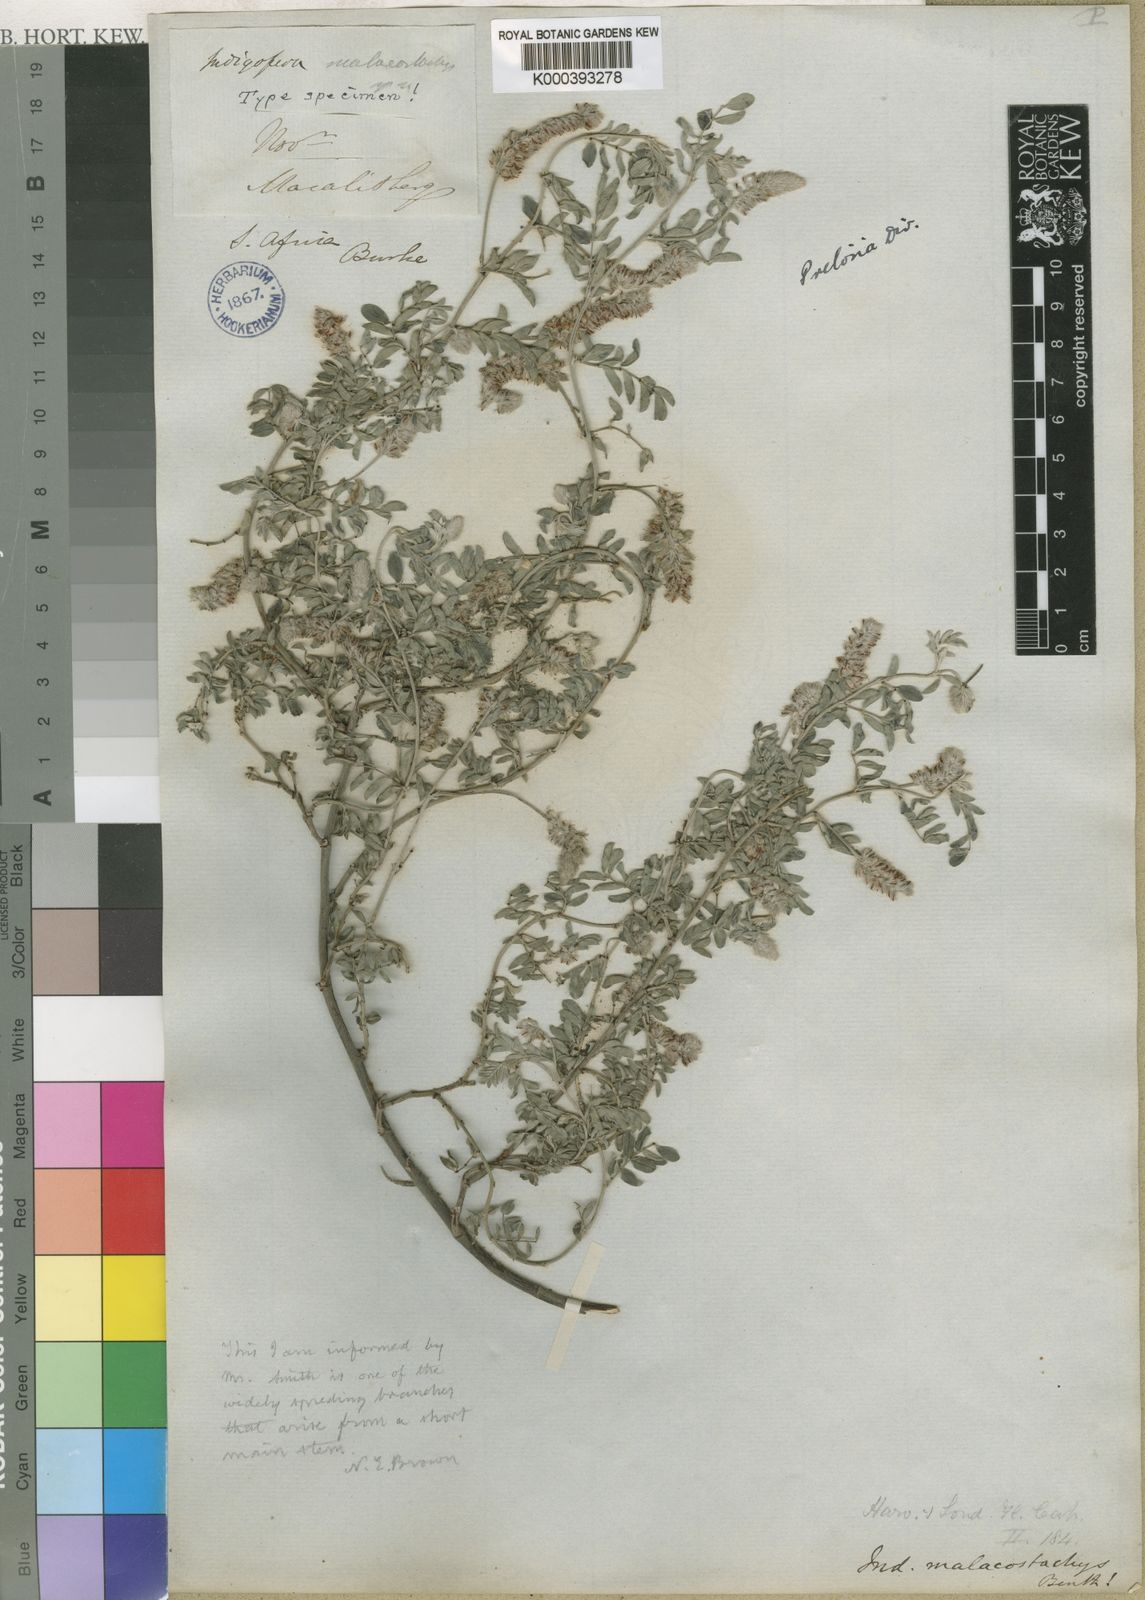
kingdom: Plantae
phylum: Tracheophyta
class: Magnoliopsida
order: Fabales
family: Fabaceae
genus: Indigofera
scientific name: Indigofera melanadenia
